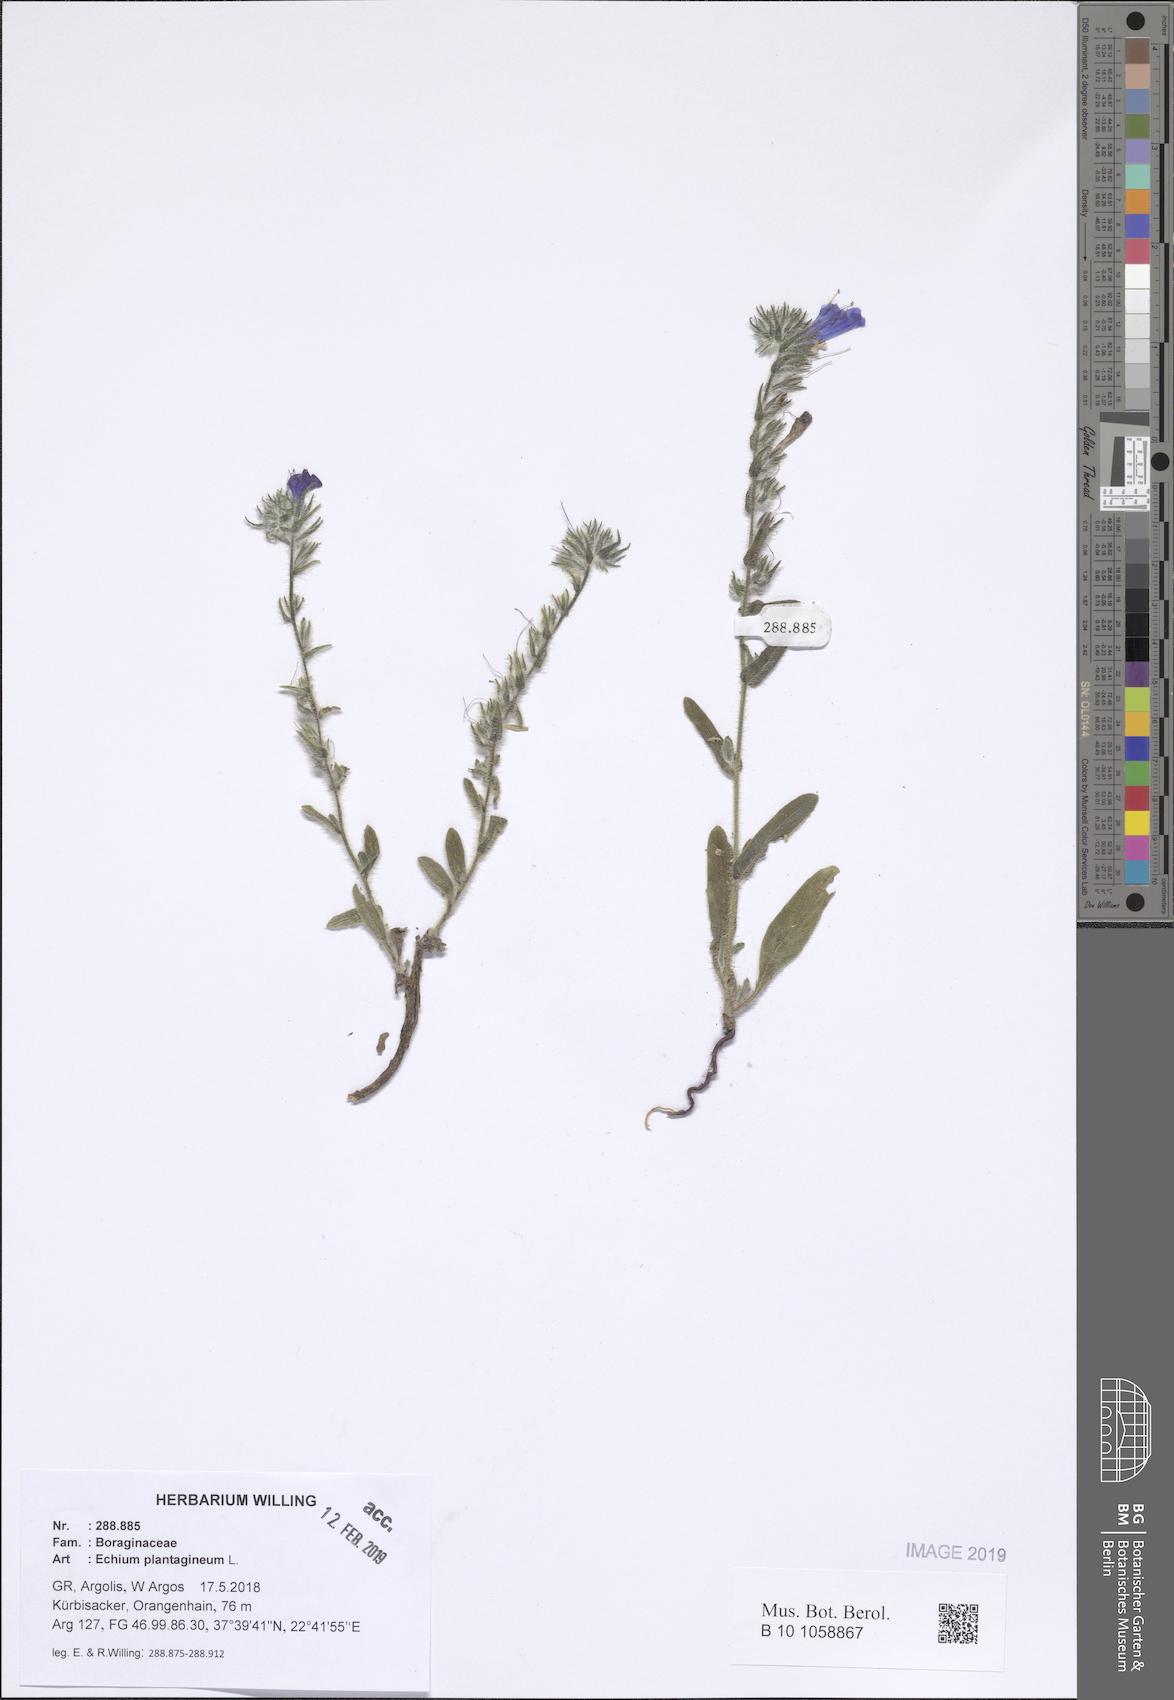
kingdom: Plantae
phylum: Tracheophyta
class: Magnoliopsida
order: Boraginales
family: Boraginaceae
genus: Echium
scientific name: Echium plantagineum
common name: Purple viper's-bugloss
